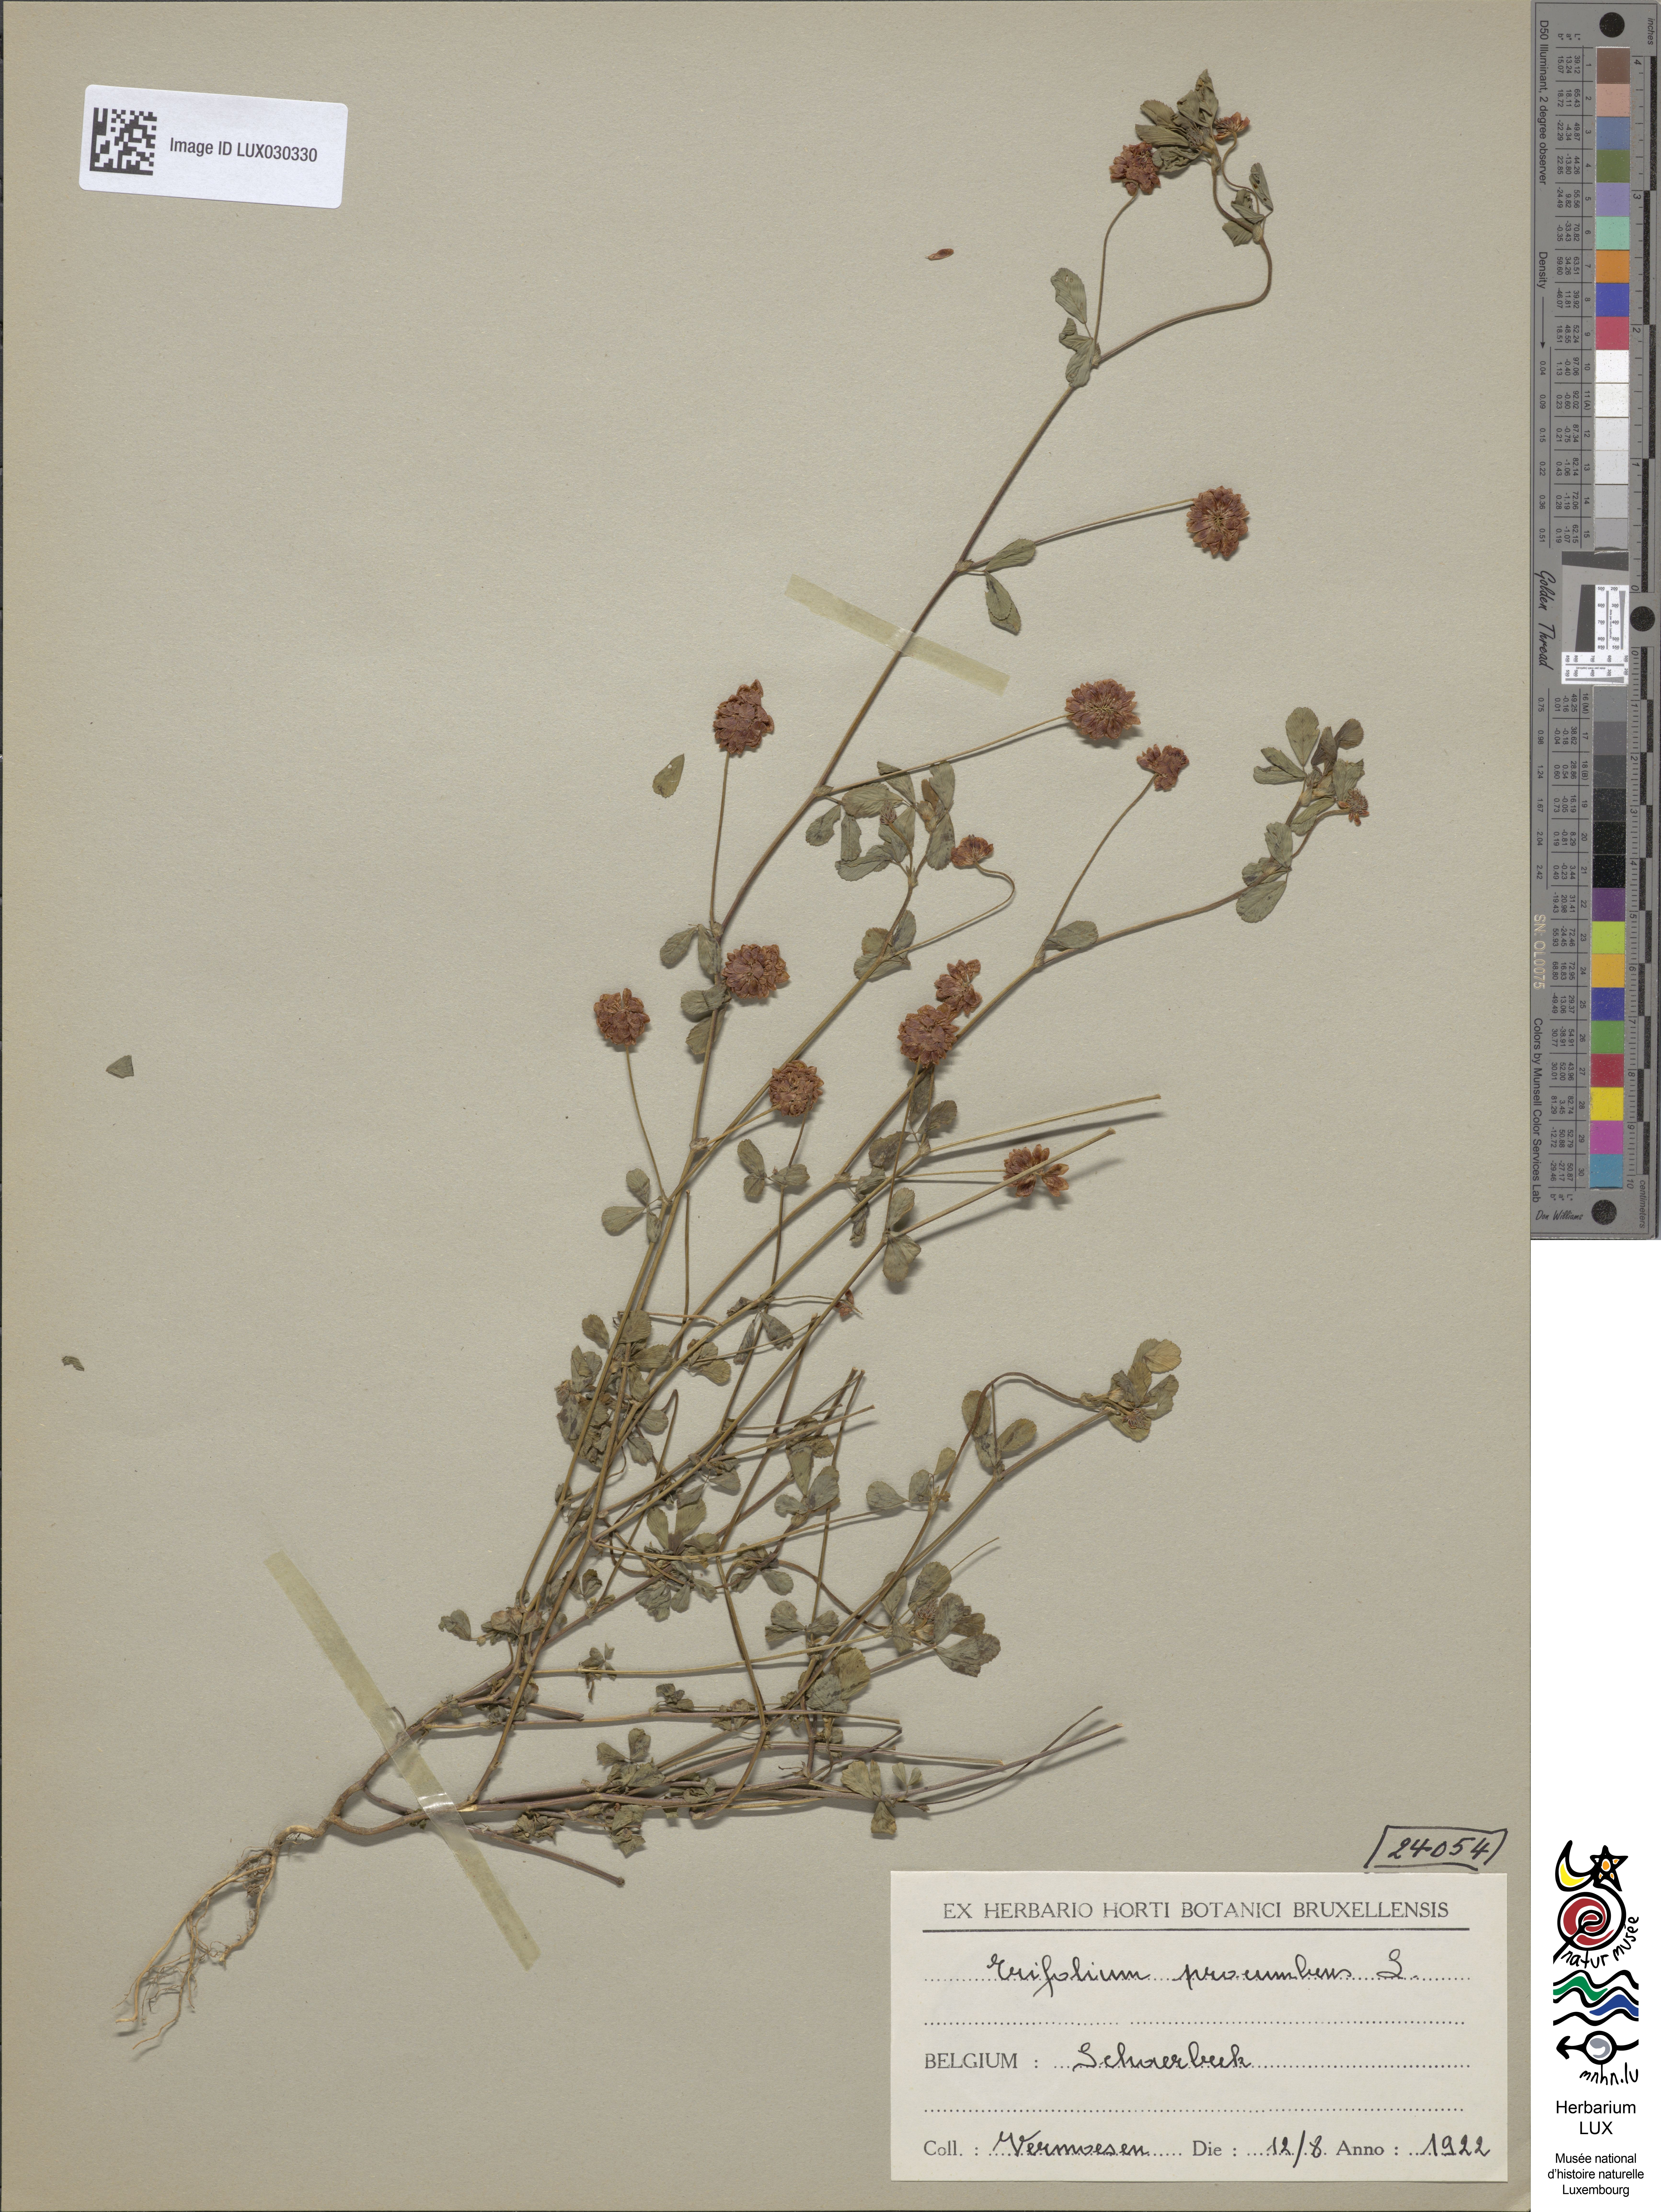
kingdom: Plantae
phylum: Tracheophyta
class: Magnoliopsida
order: Fabales
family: Fabaceae
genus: Trifolium
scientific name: Trifolium campestre
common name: Field clover
